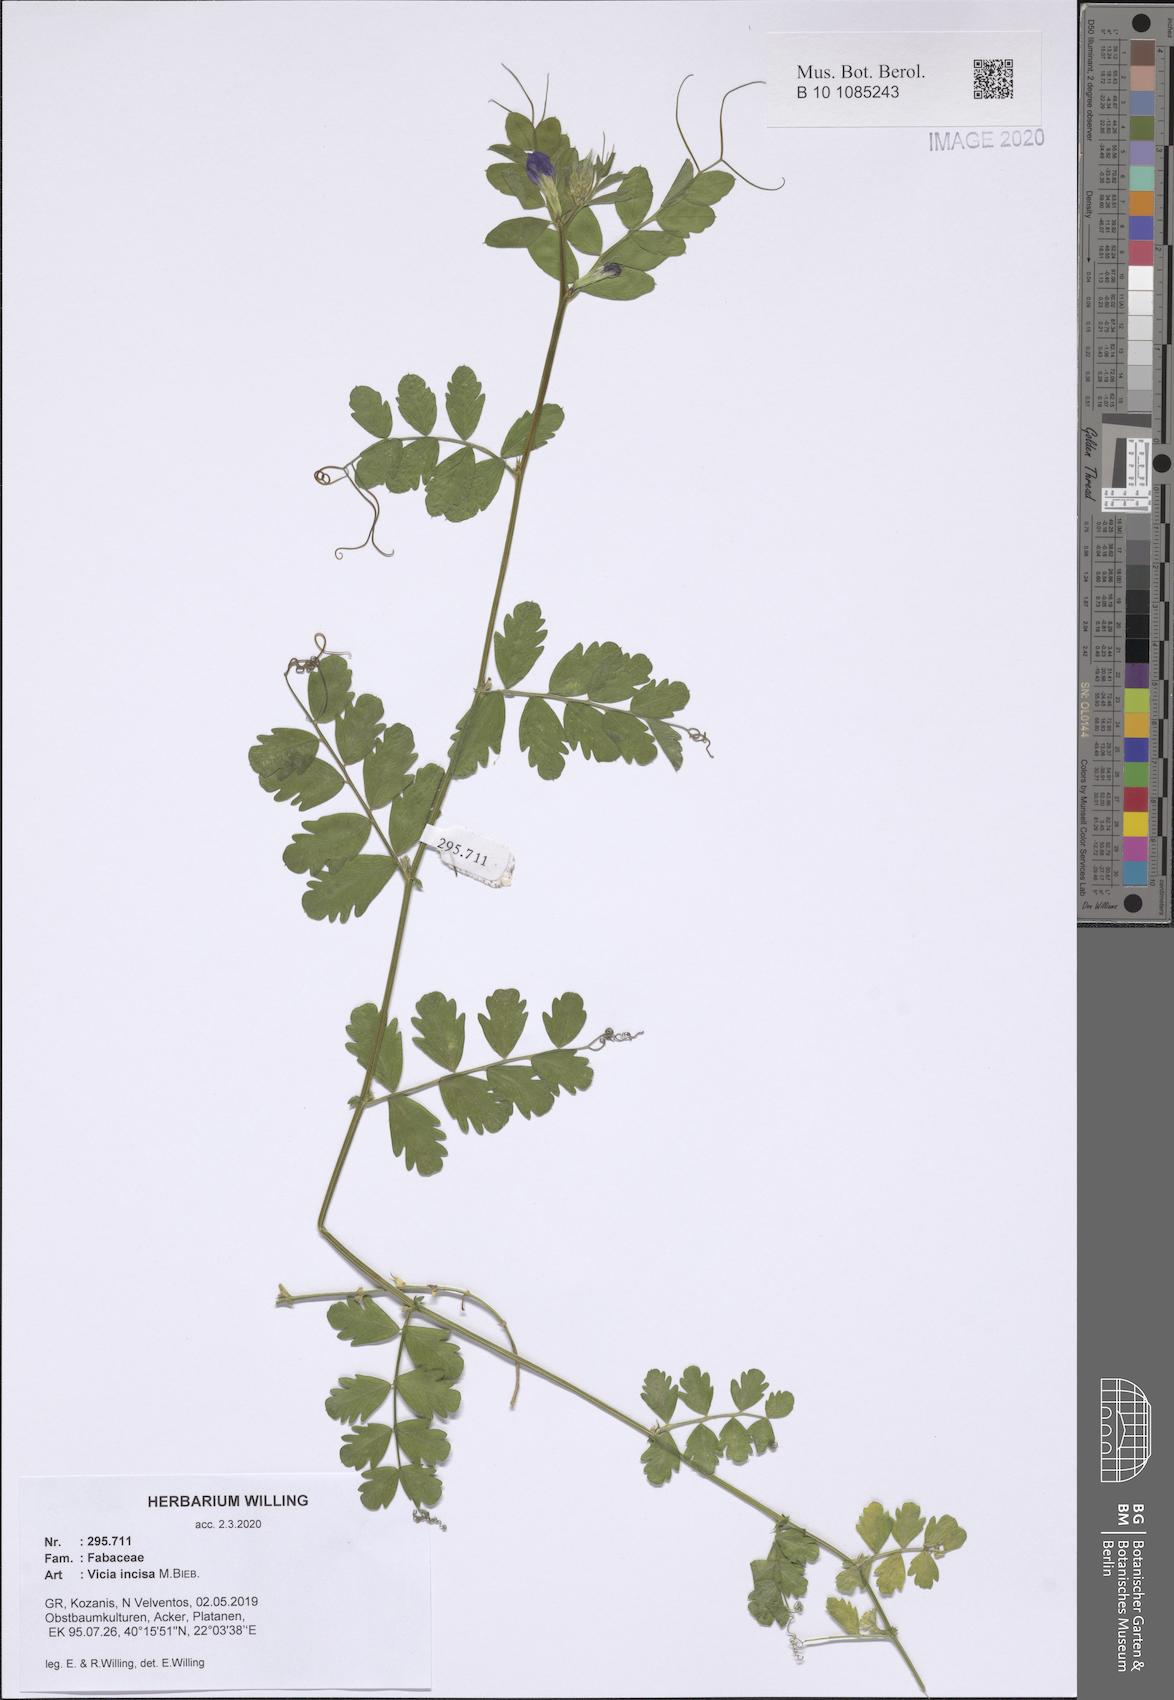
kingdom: Plantae
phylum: Tracheophyta
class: Magnoliopsida
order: Fabales
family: Fabaceae
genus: Vicia
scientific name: Vicia sativa
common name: Garden vetch
